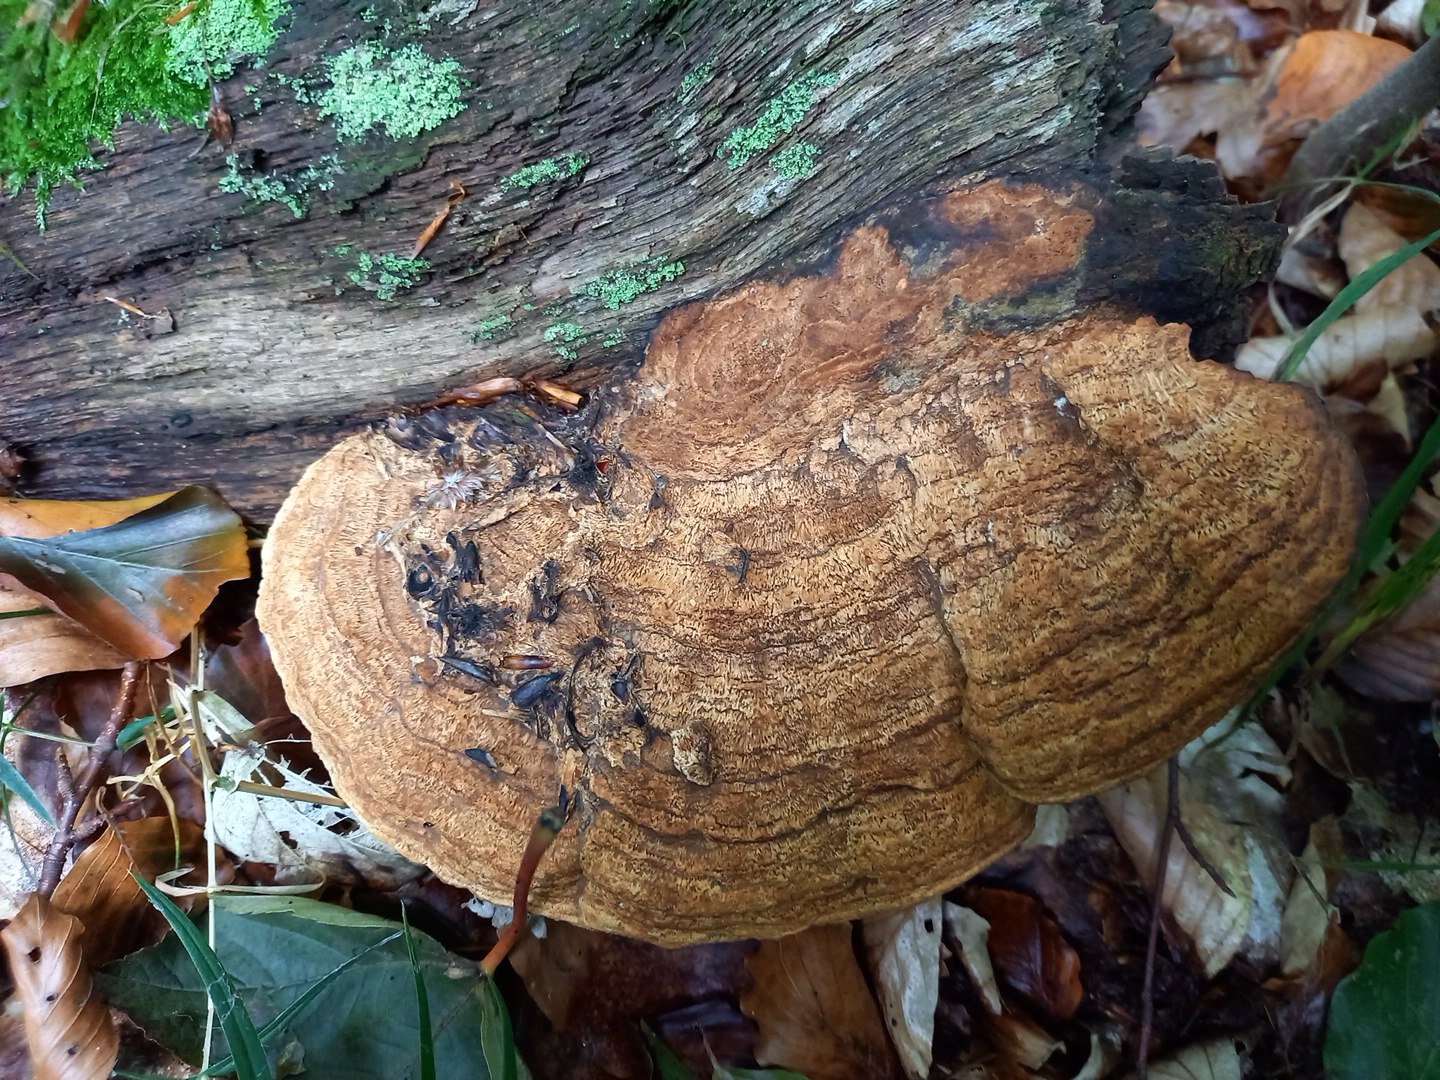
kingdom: Fungi
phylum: Basidiomycota
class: Agaricomycetes
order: Polyporales
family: Fomitopsidaceae
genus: Daedalea
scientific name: Daedalea quercina
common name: ege-labyrintsvamp
